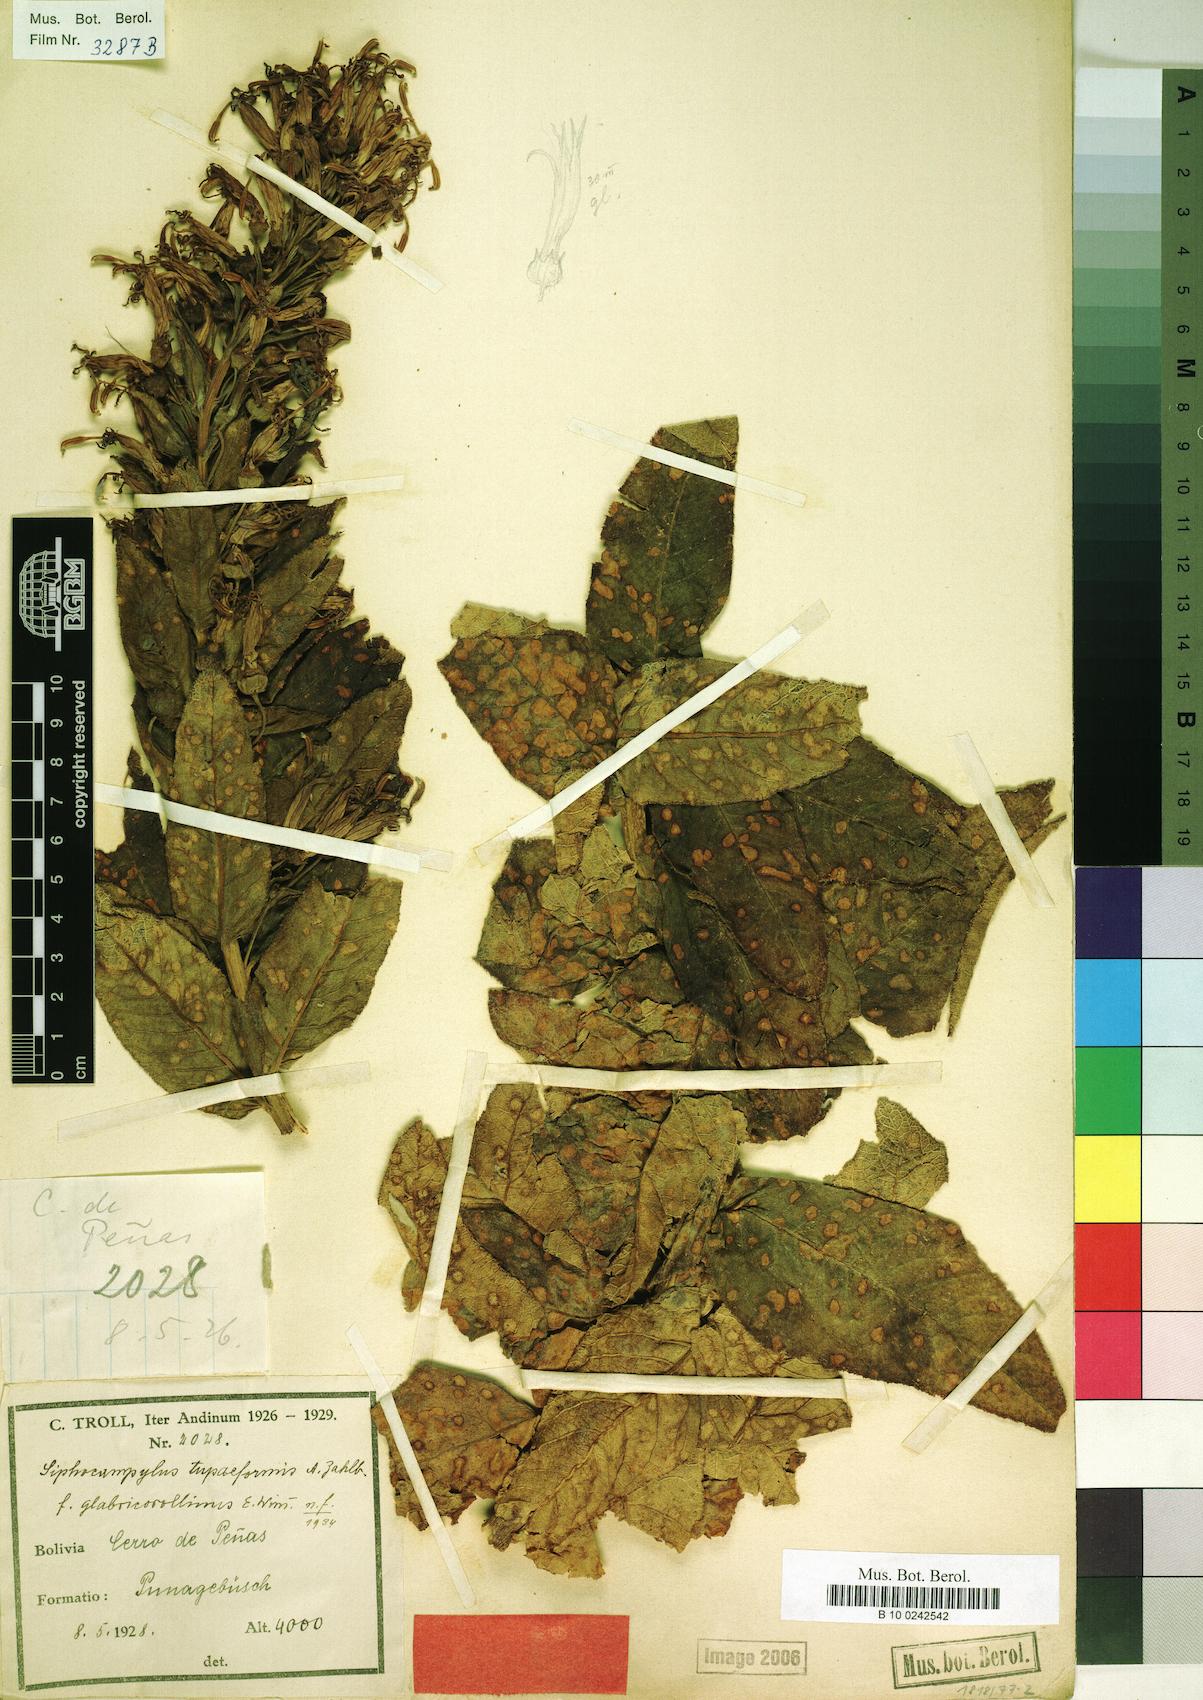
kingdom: Plantae
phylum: Tracheophyta
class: Magnoliopsida
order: Asterales
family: Campanulaceae
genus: Siphocampylus
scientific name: Siphocampylus tupaeformis
